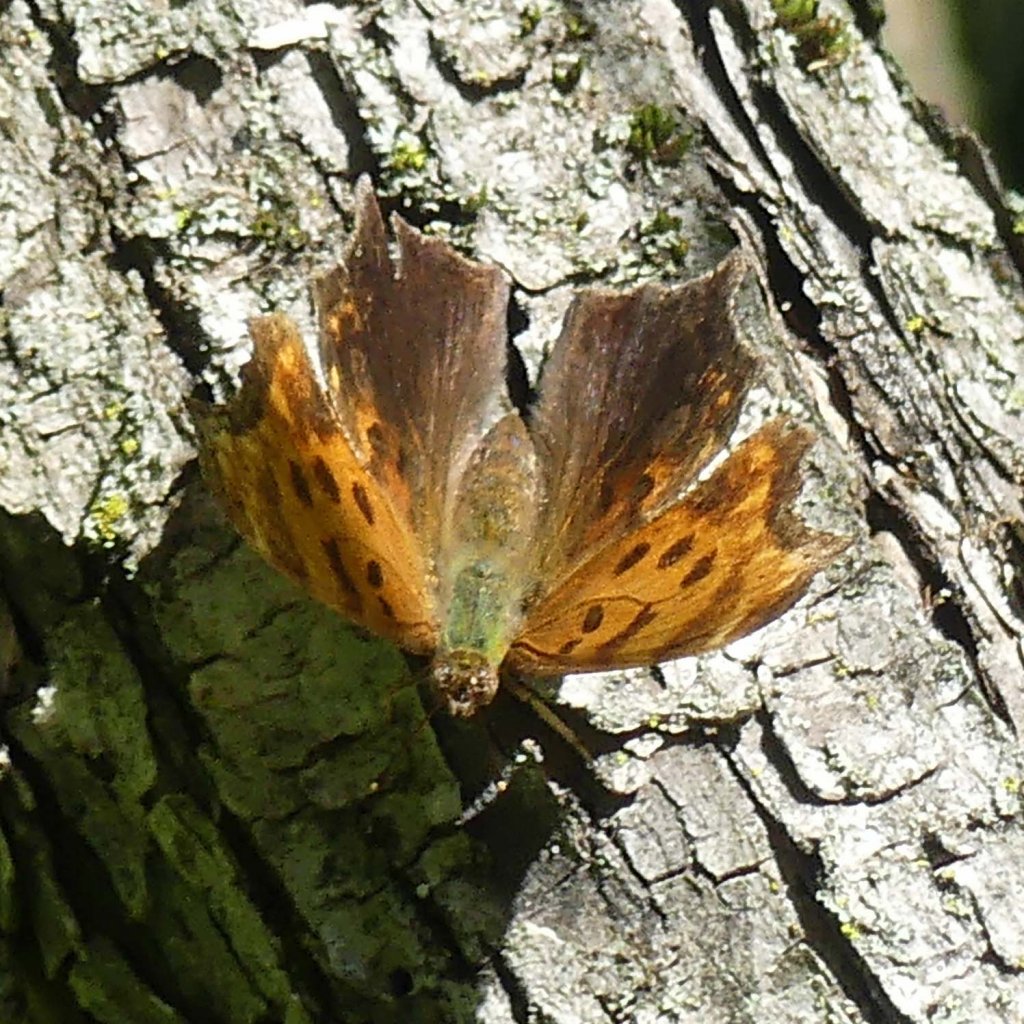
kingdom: Animalia
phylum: Arthropoda
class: Insecta
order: Lepidoptera
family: Nymphalidae
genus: Polygonia
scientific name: Polygonia comma
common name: Eastern Comma
